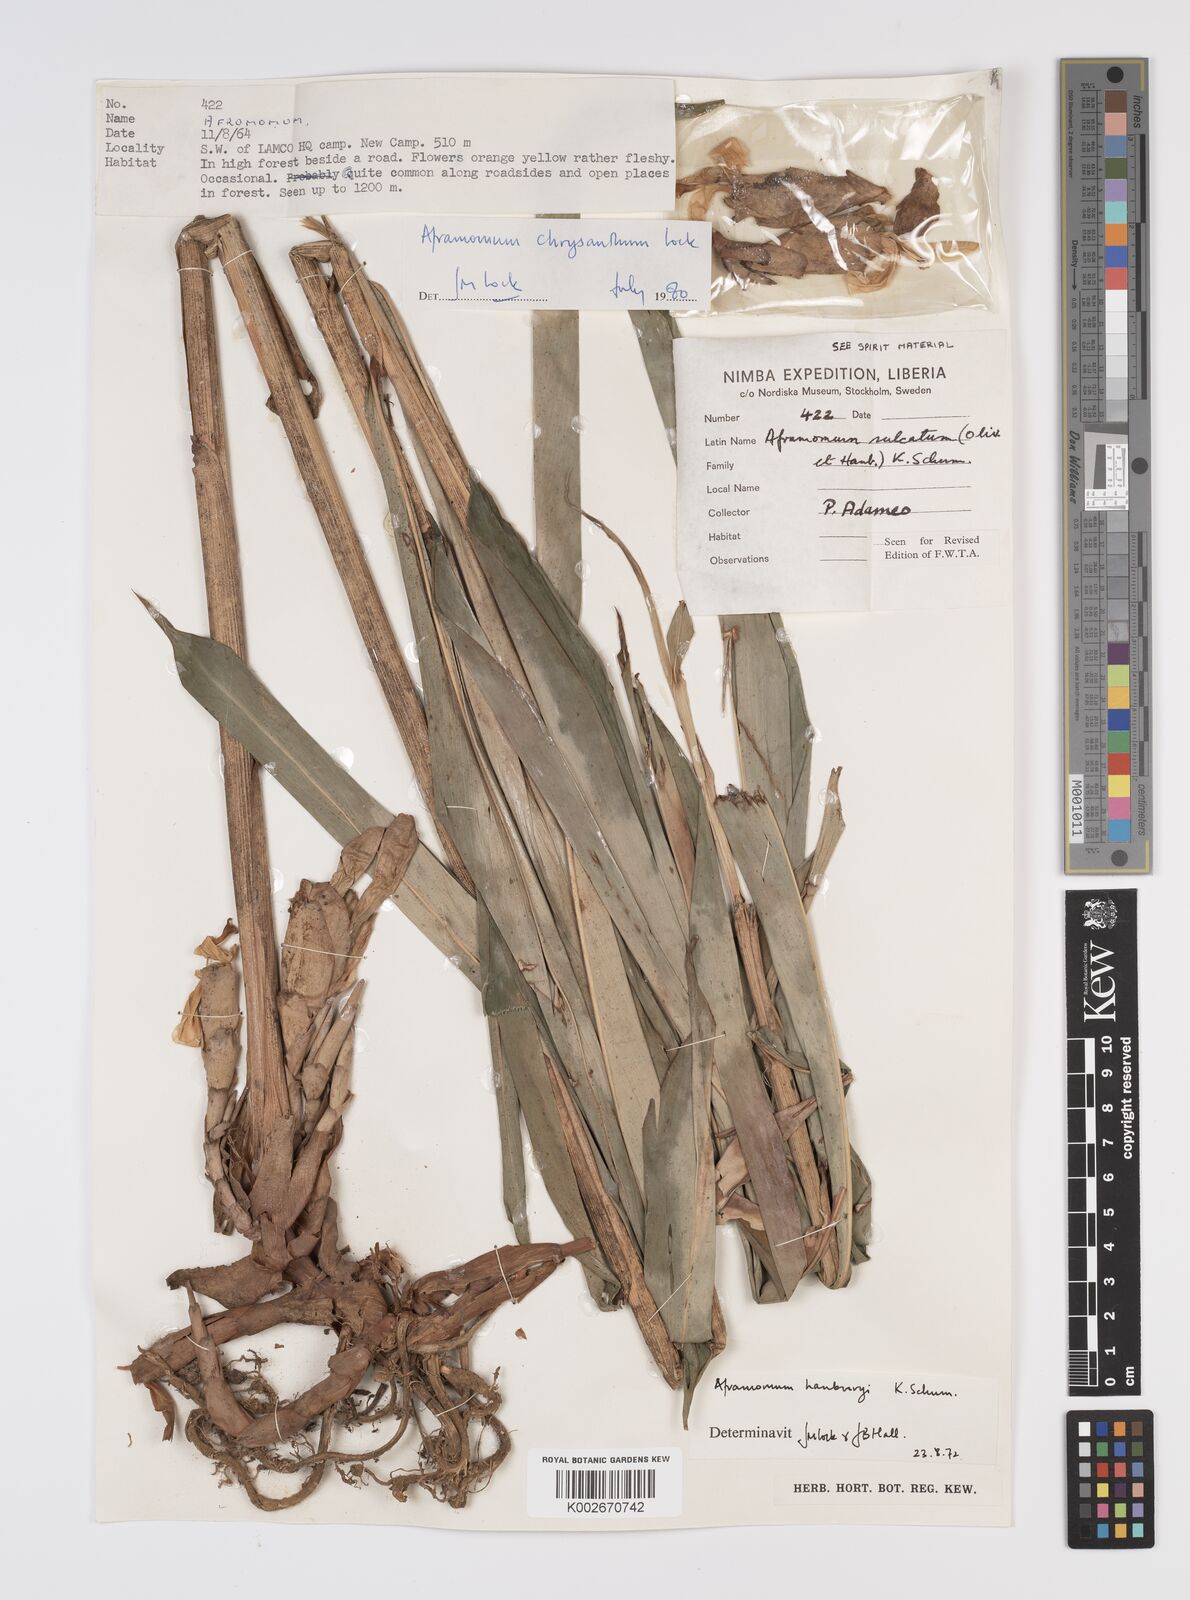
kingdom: Plantae
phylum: Tracheophyta
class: Liliopsida
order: Zingiberales
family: Zingiberaceae
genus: Aframomum
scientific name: Aframomum chrysanthum
